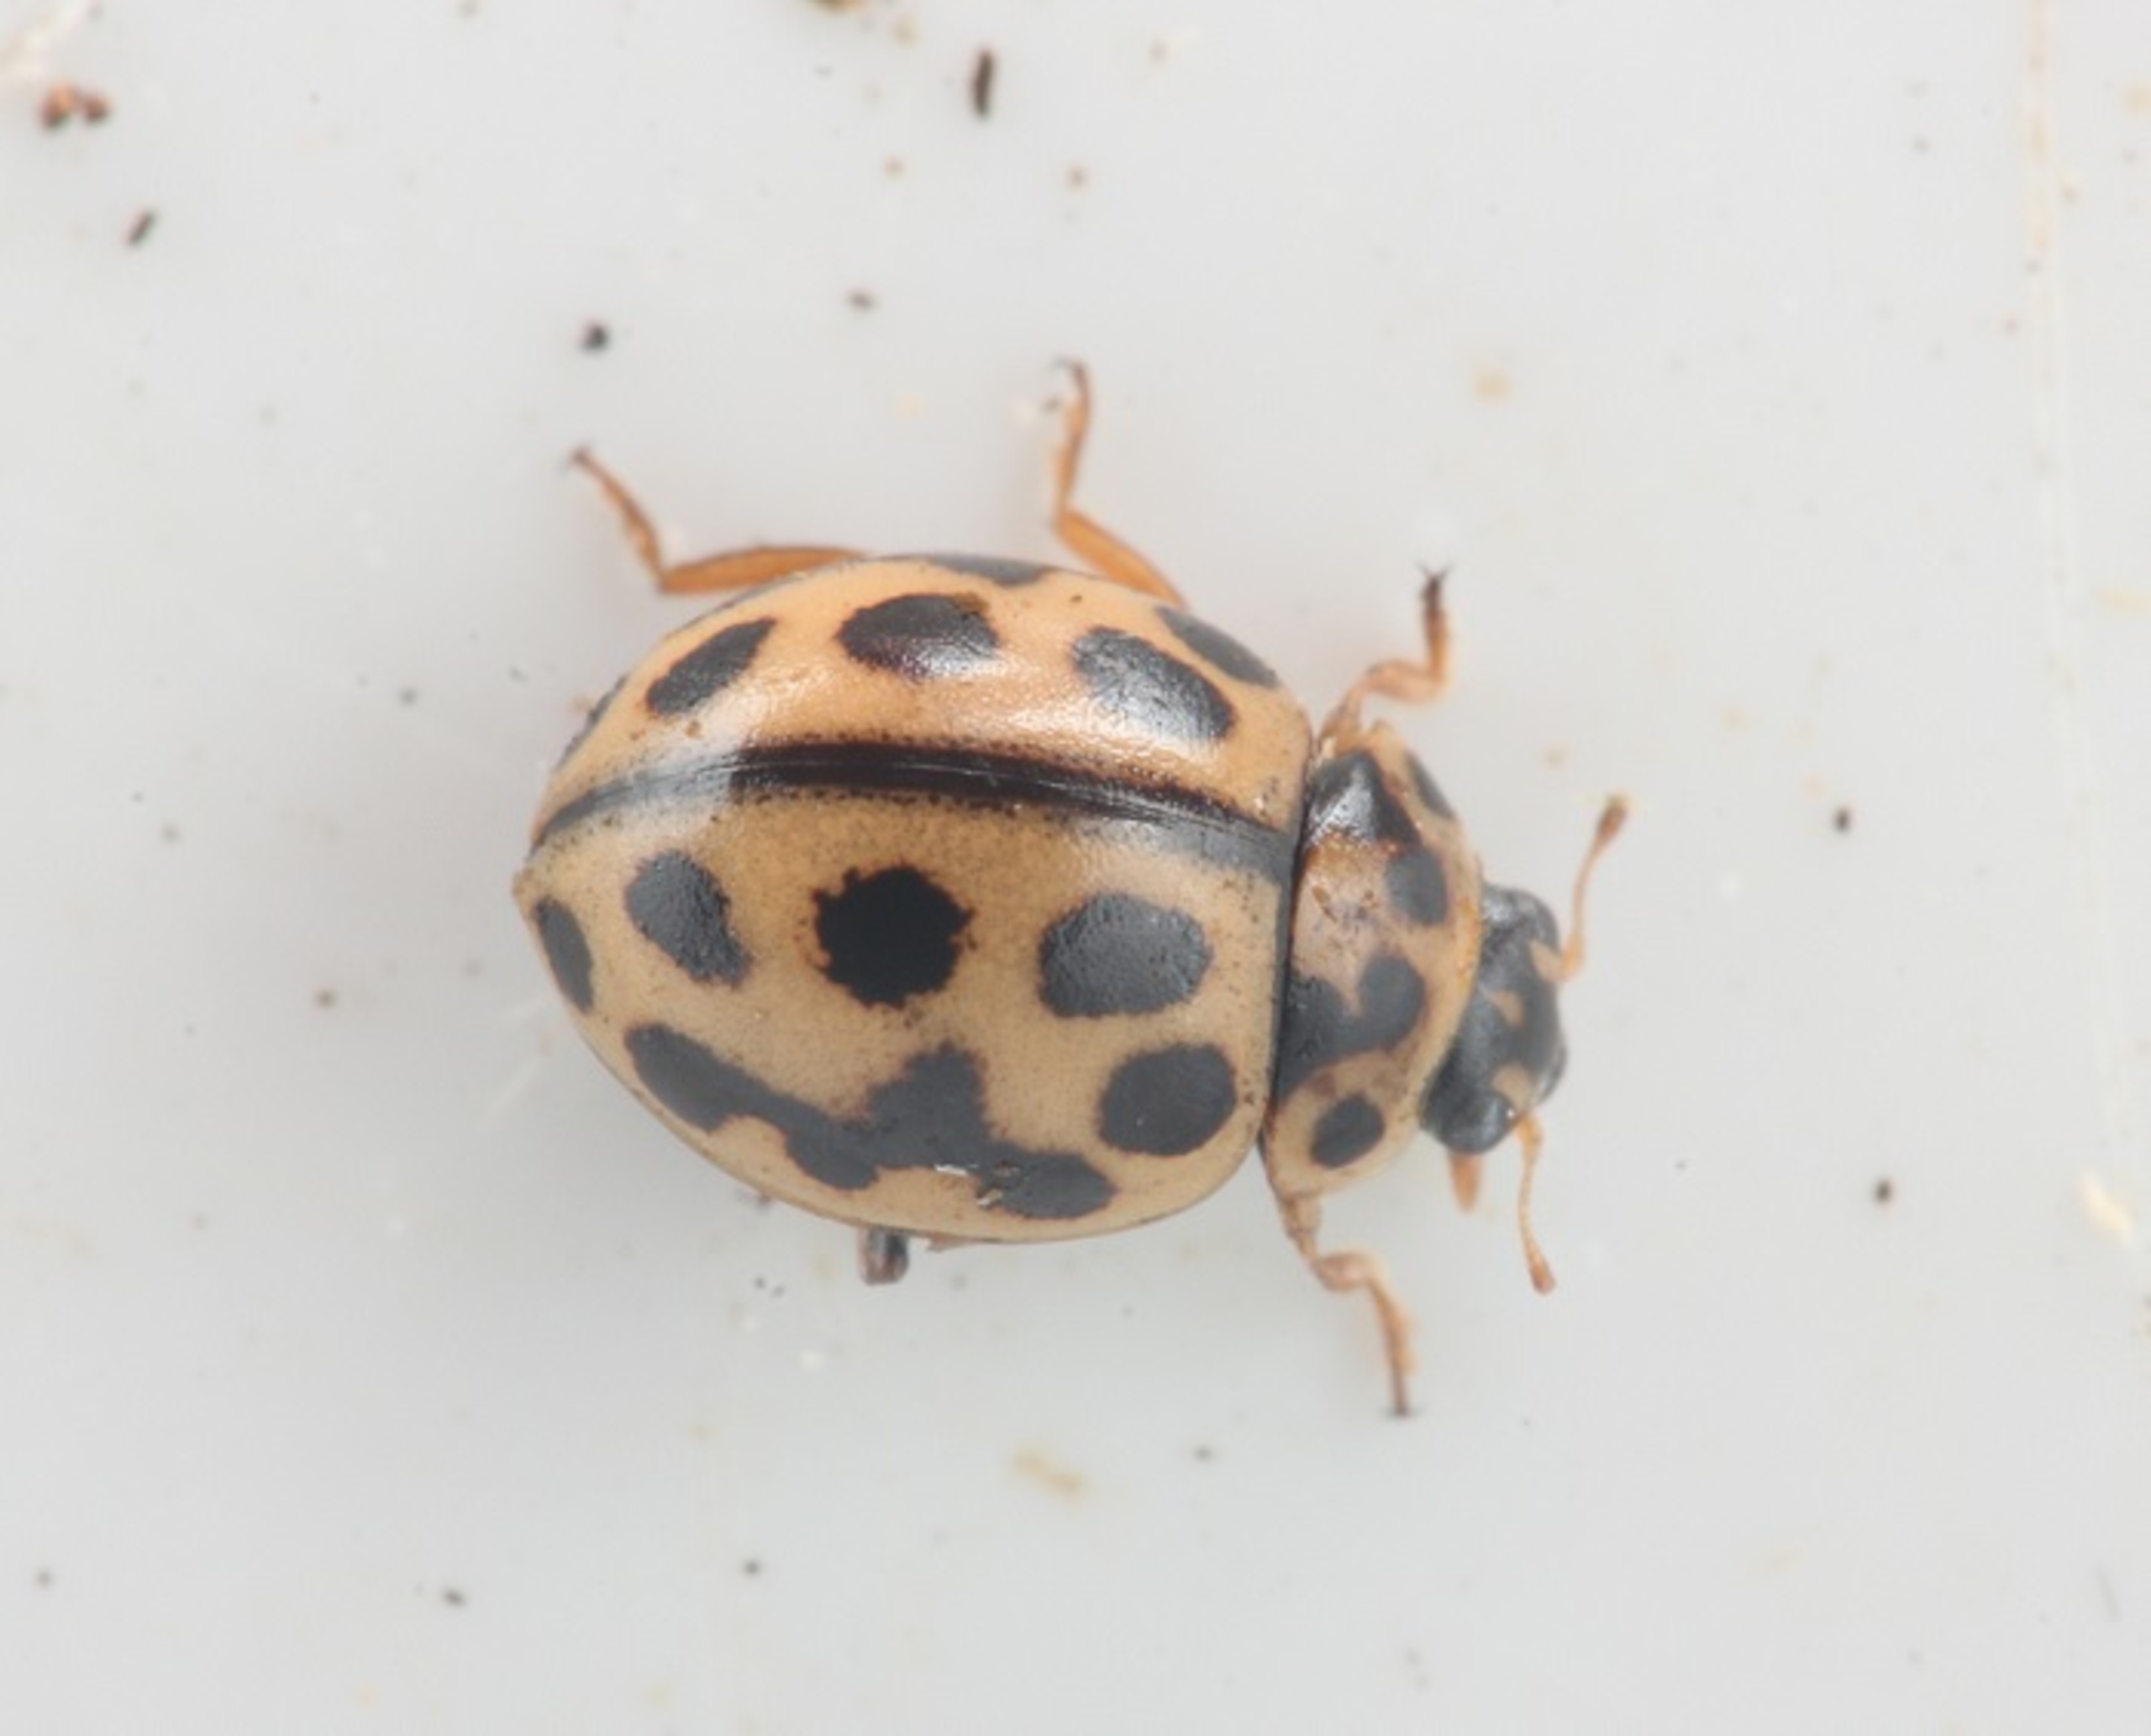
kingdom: Animalia
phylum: Arthropoda
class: Insecta
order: Coleoptera
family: Coccinellidae
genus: Tytthaspis
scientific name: Tytthaspis sedecimpunctata
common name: Sekstenprikket mariehøne
